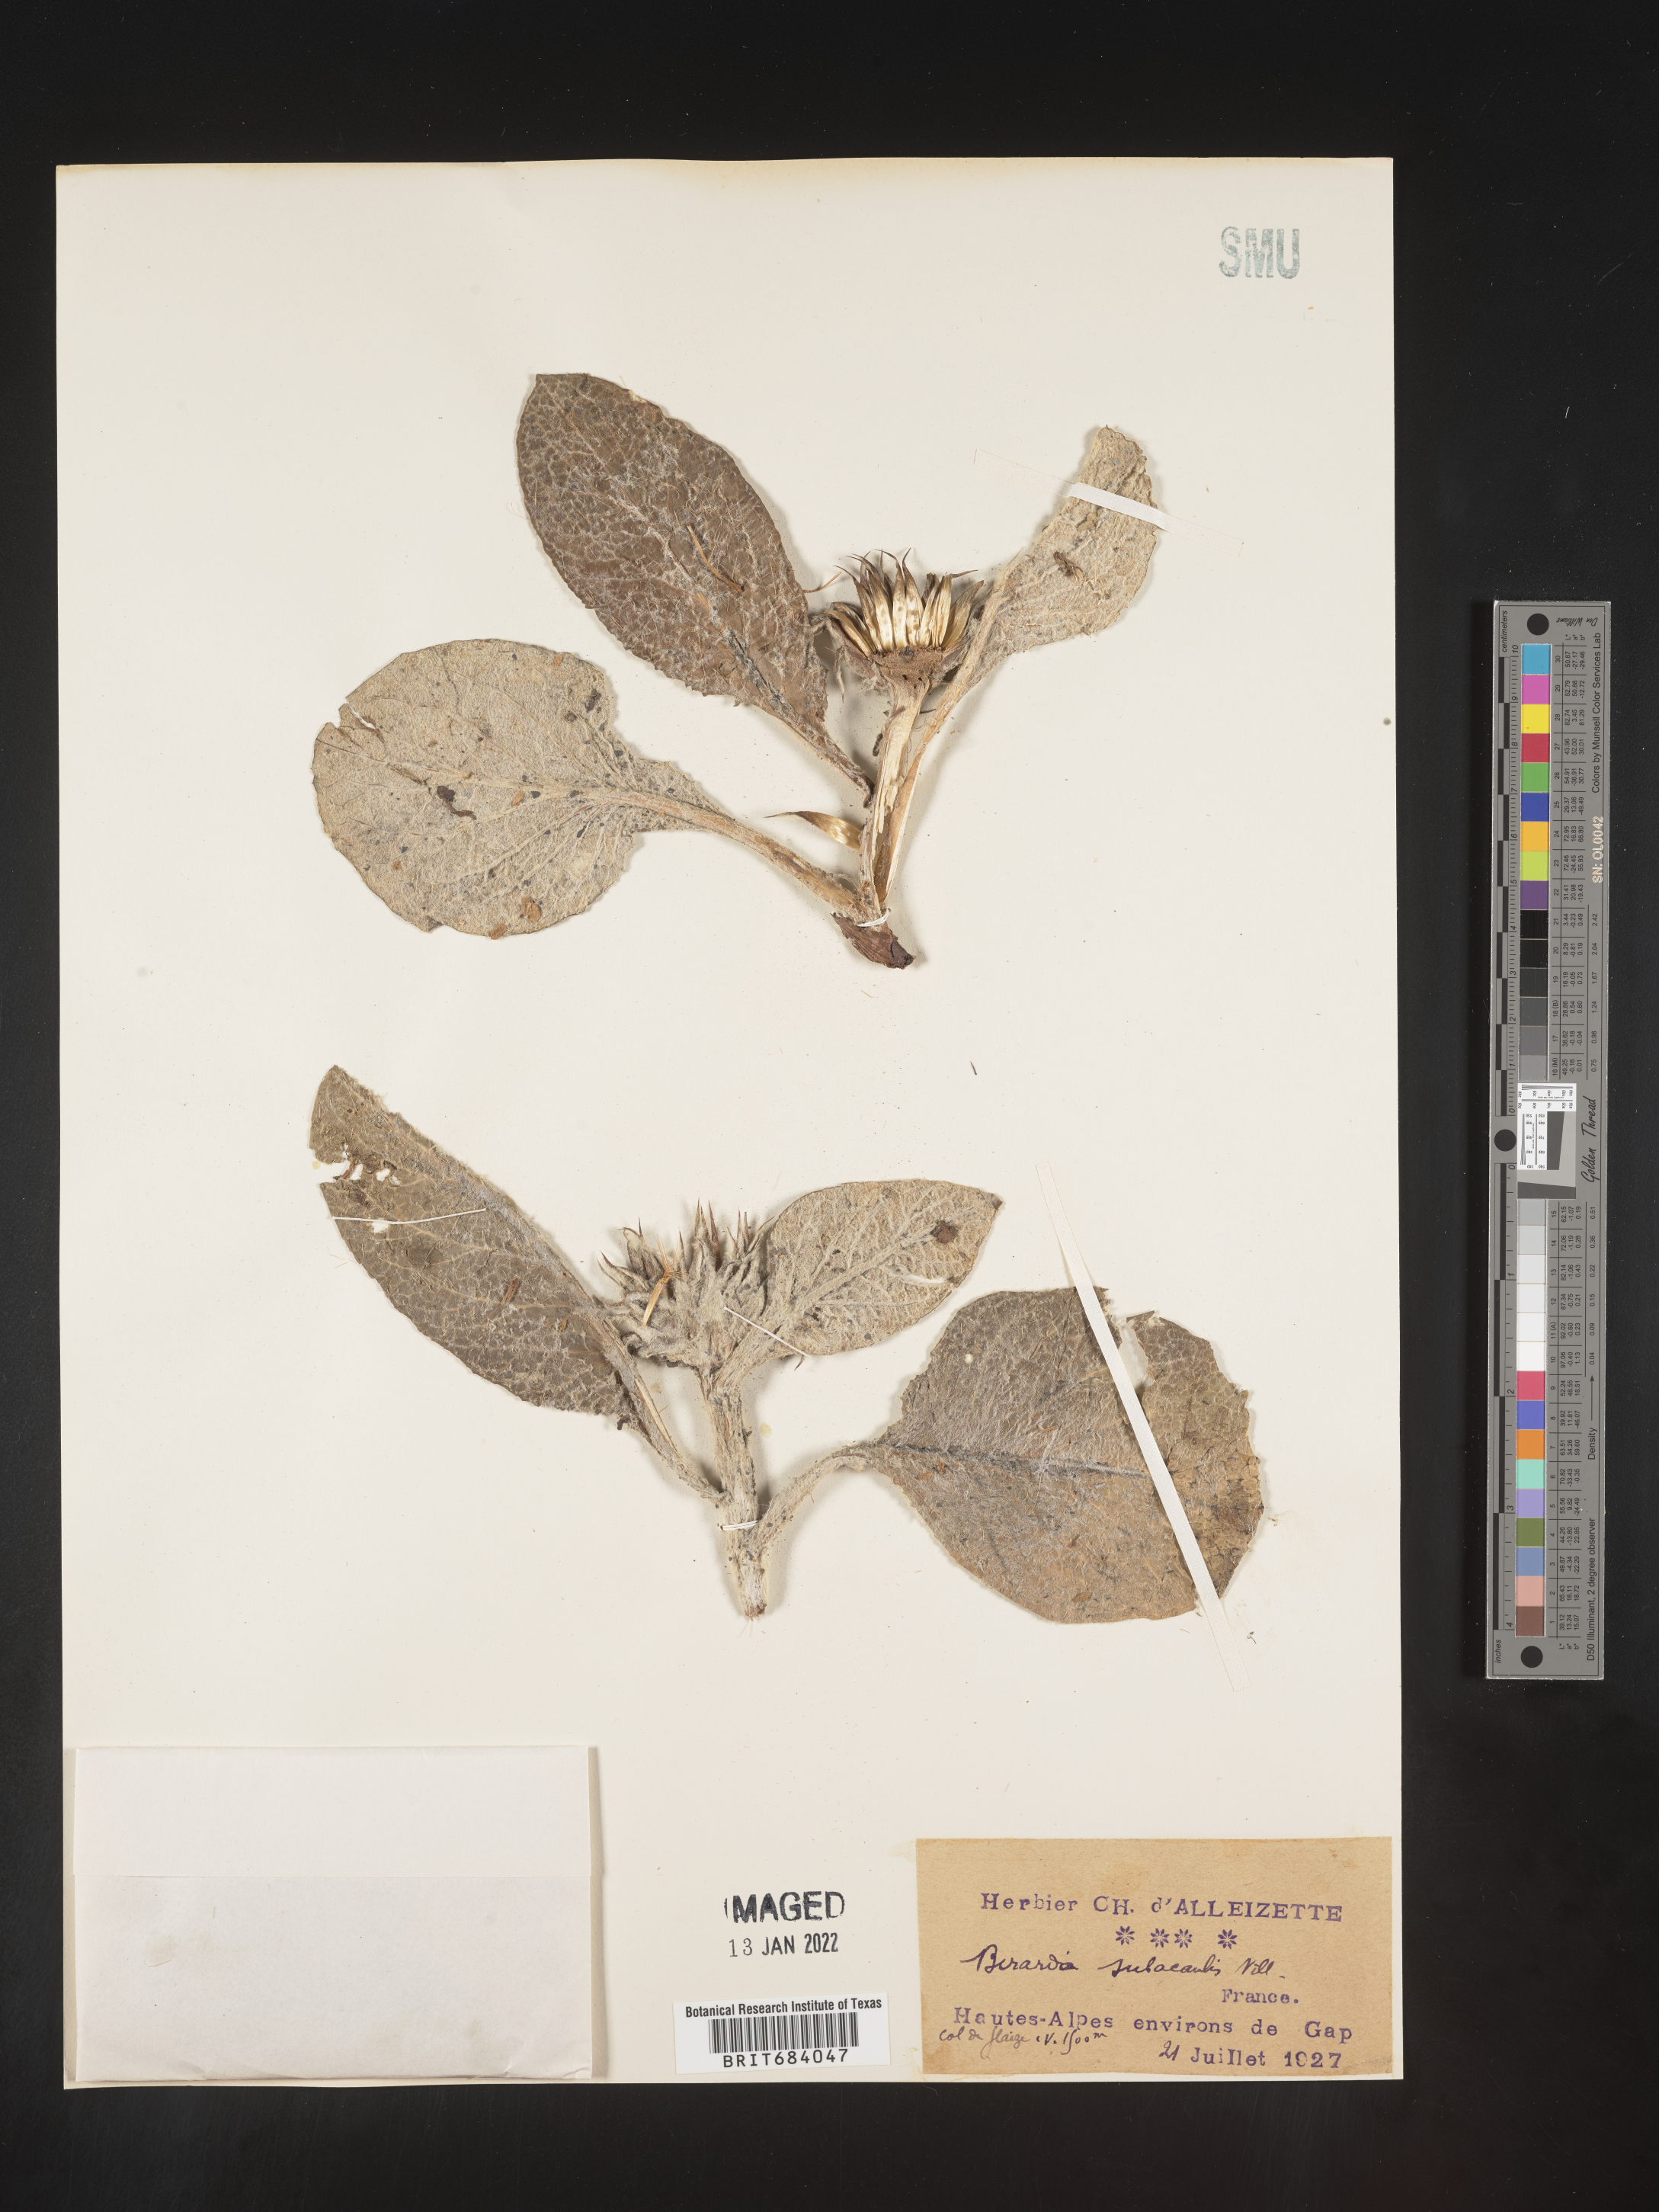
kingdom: Plantae
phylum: Tracheophyta
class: Magnoliopsida
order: Asterales
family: Asteraceae
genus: Berardia
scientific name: Berardia
